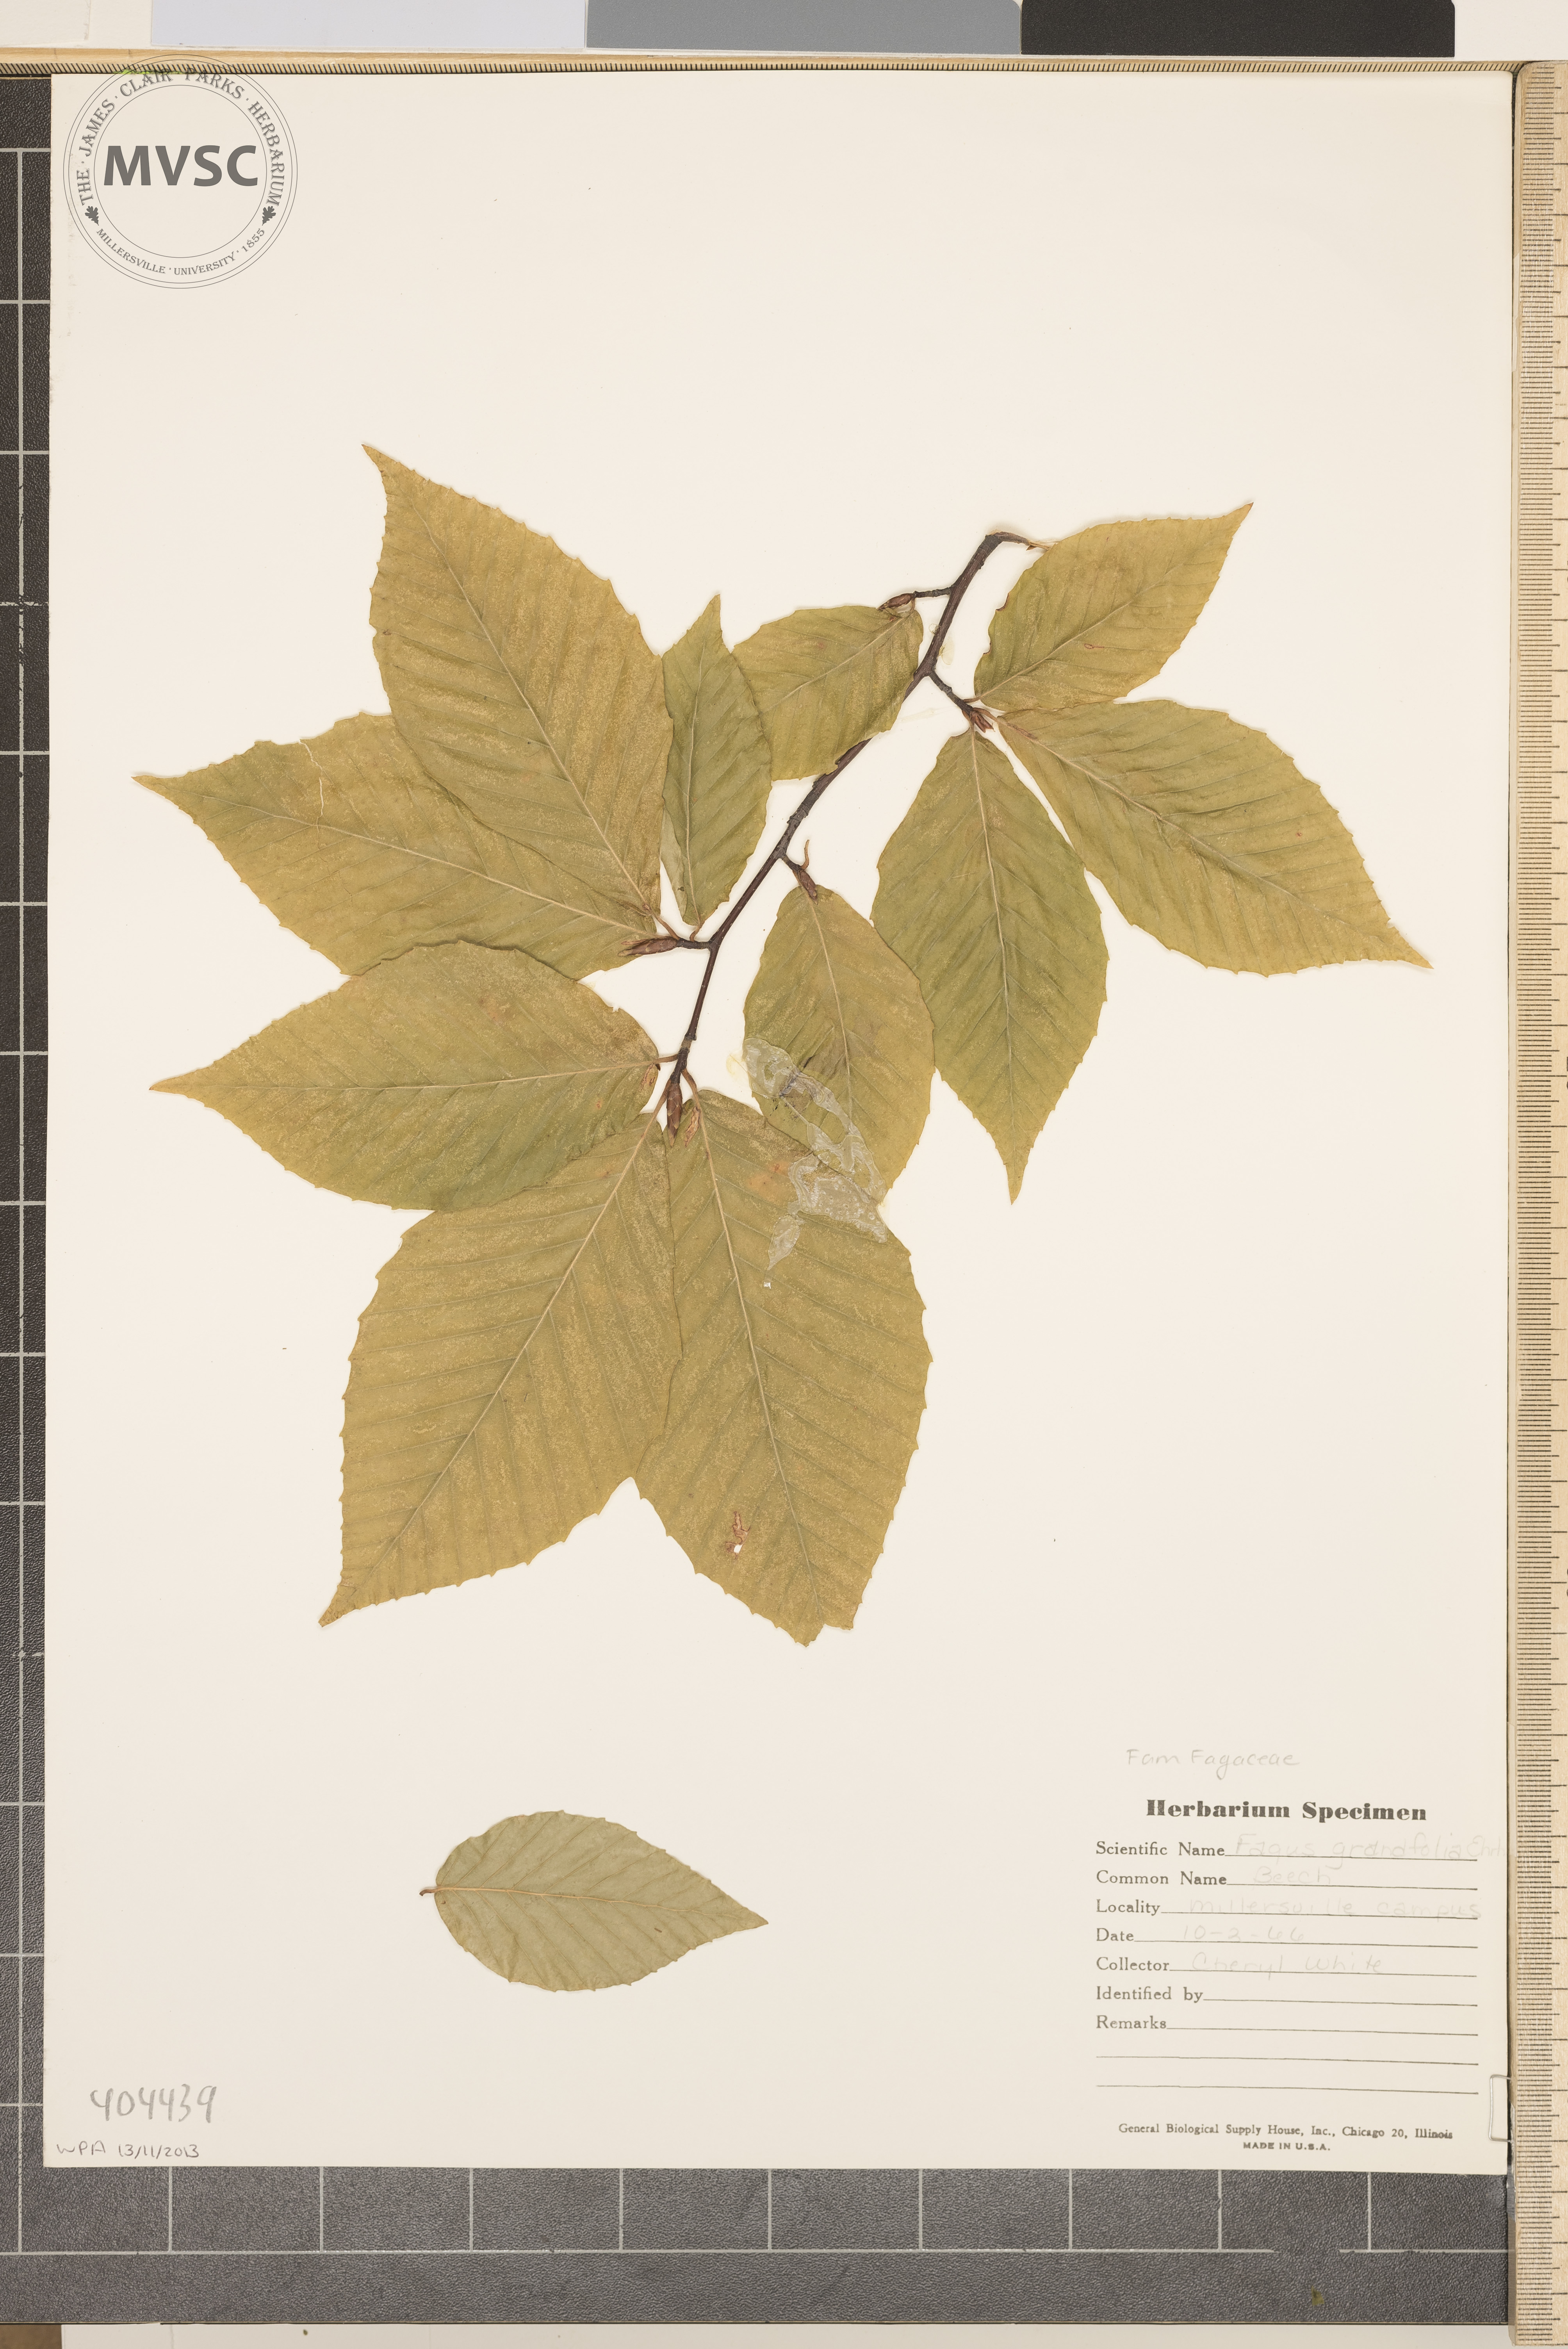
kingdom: Plantae
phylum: Tracheophyta
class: Magnoliopsida
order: Fagales
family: Fagaceae
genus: Fagus
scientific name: Fagus grandifolia
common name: Beech
